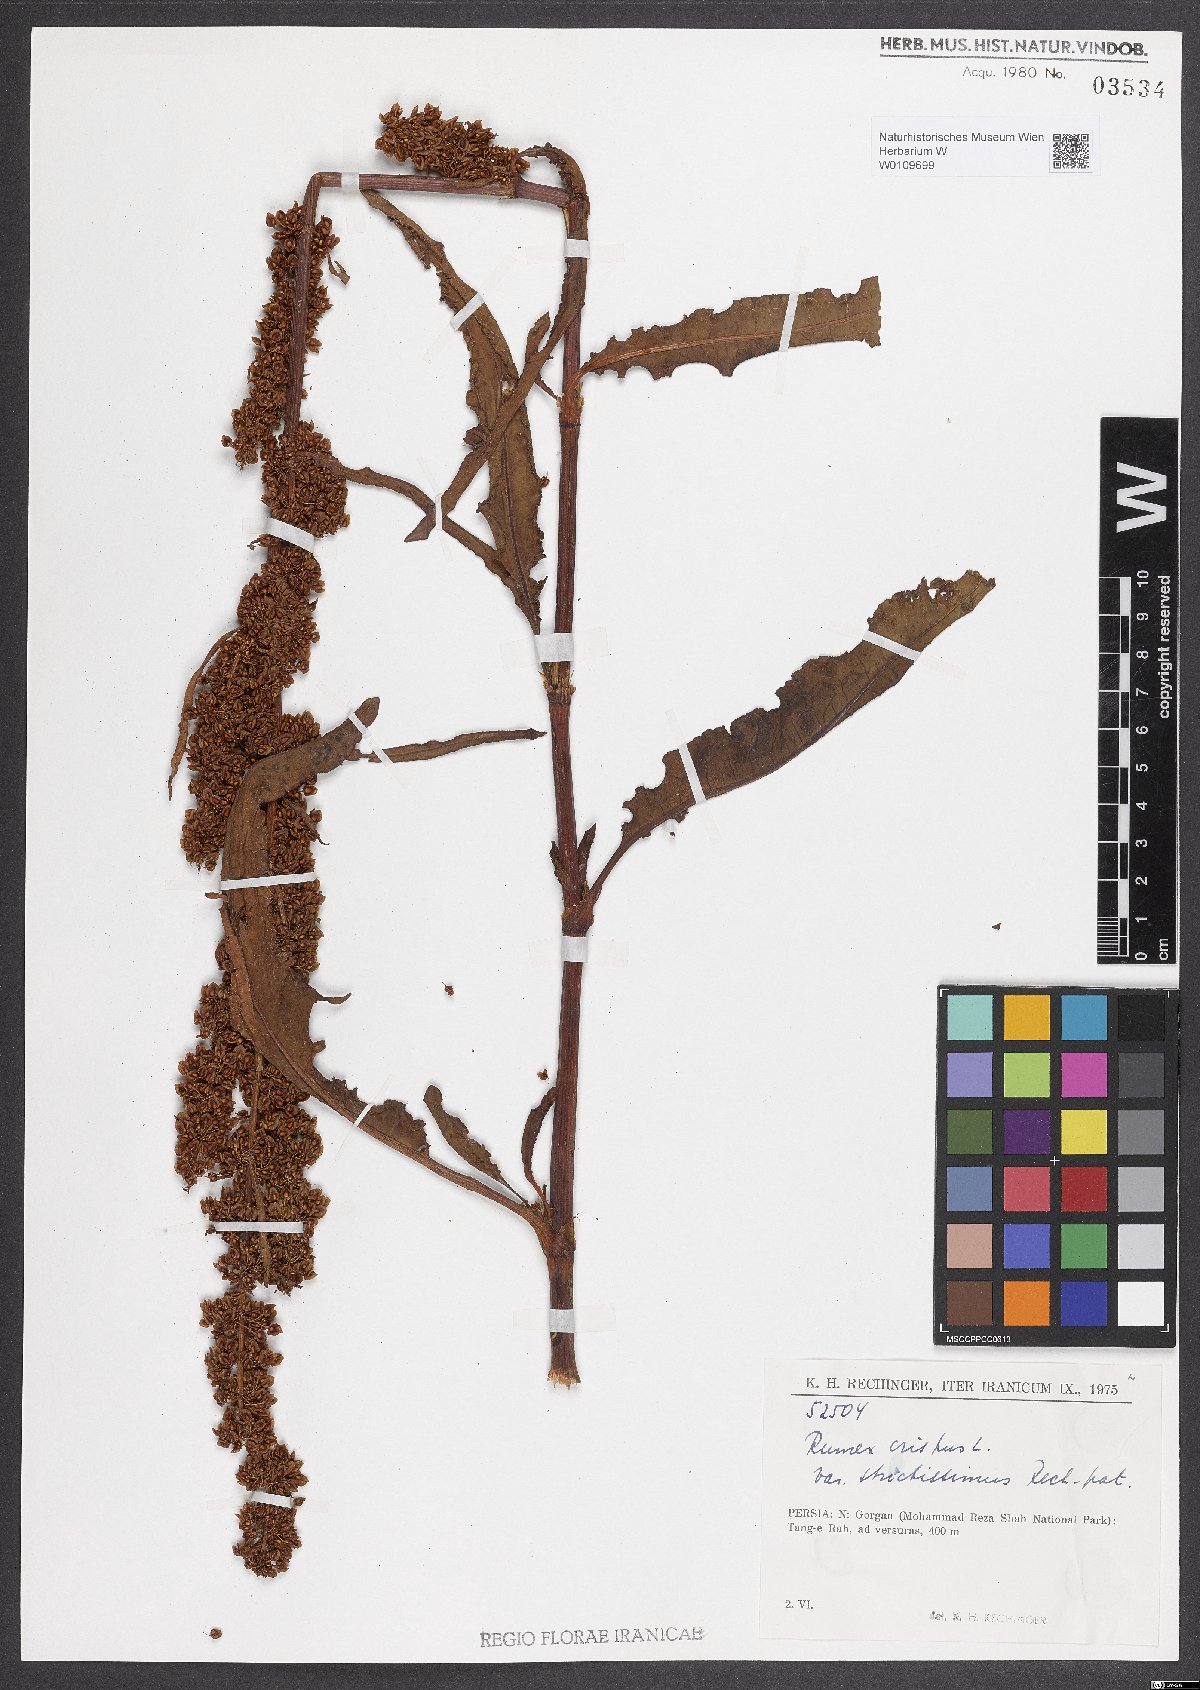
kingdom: Plantae
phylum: Tracheophyta
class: Magnoliopsida
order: Caryophyllales
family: Polygonaceae
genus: Rumex
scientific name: Rumex crispus
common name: Curled dock
